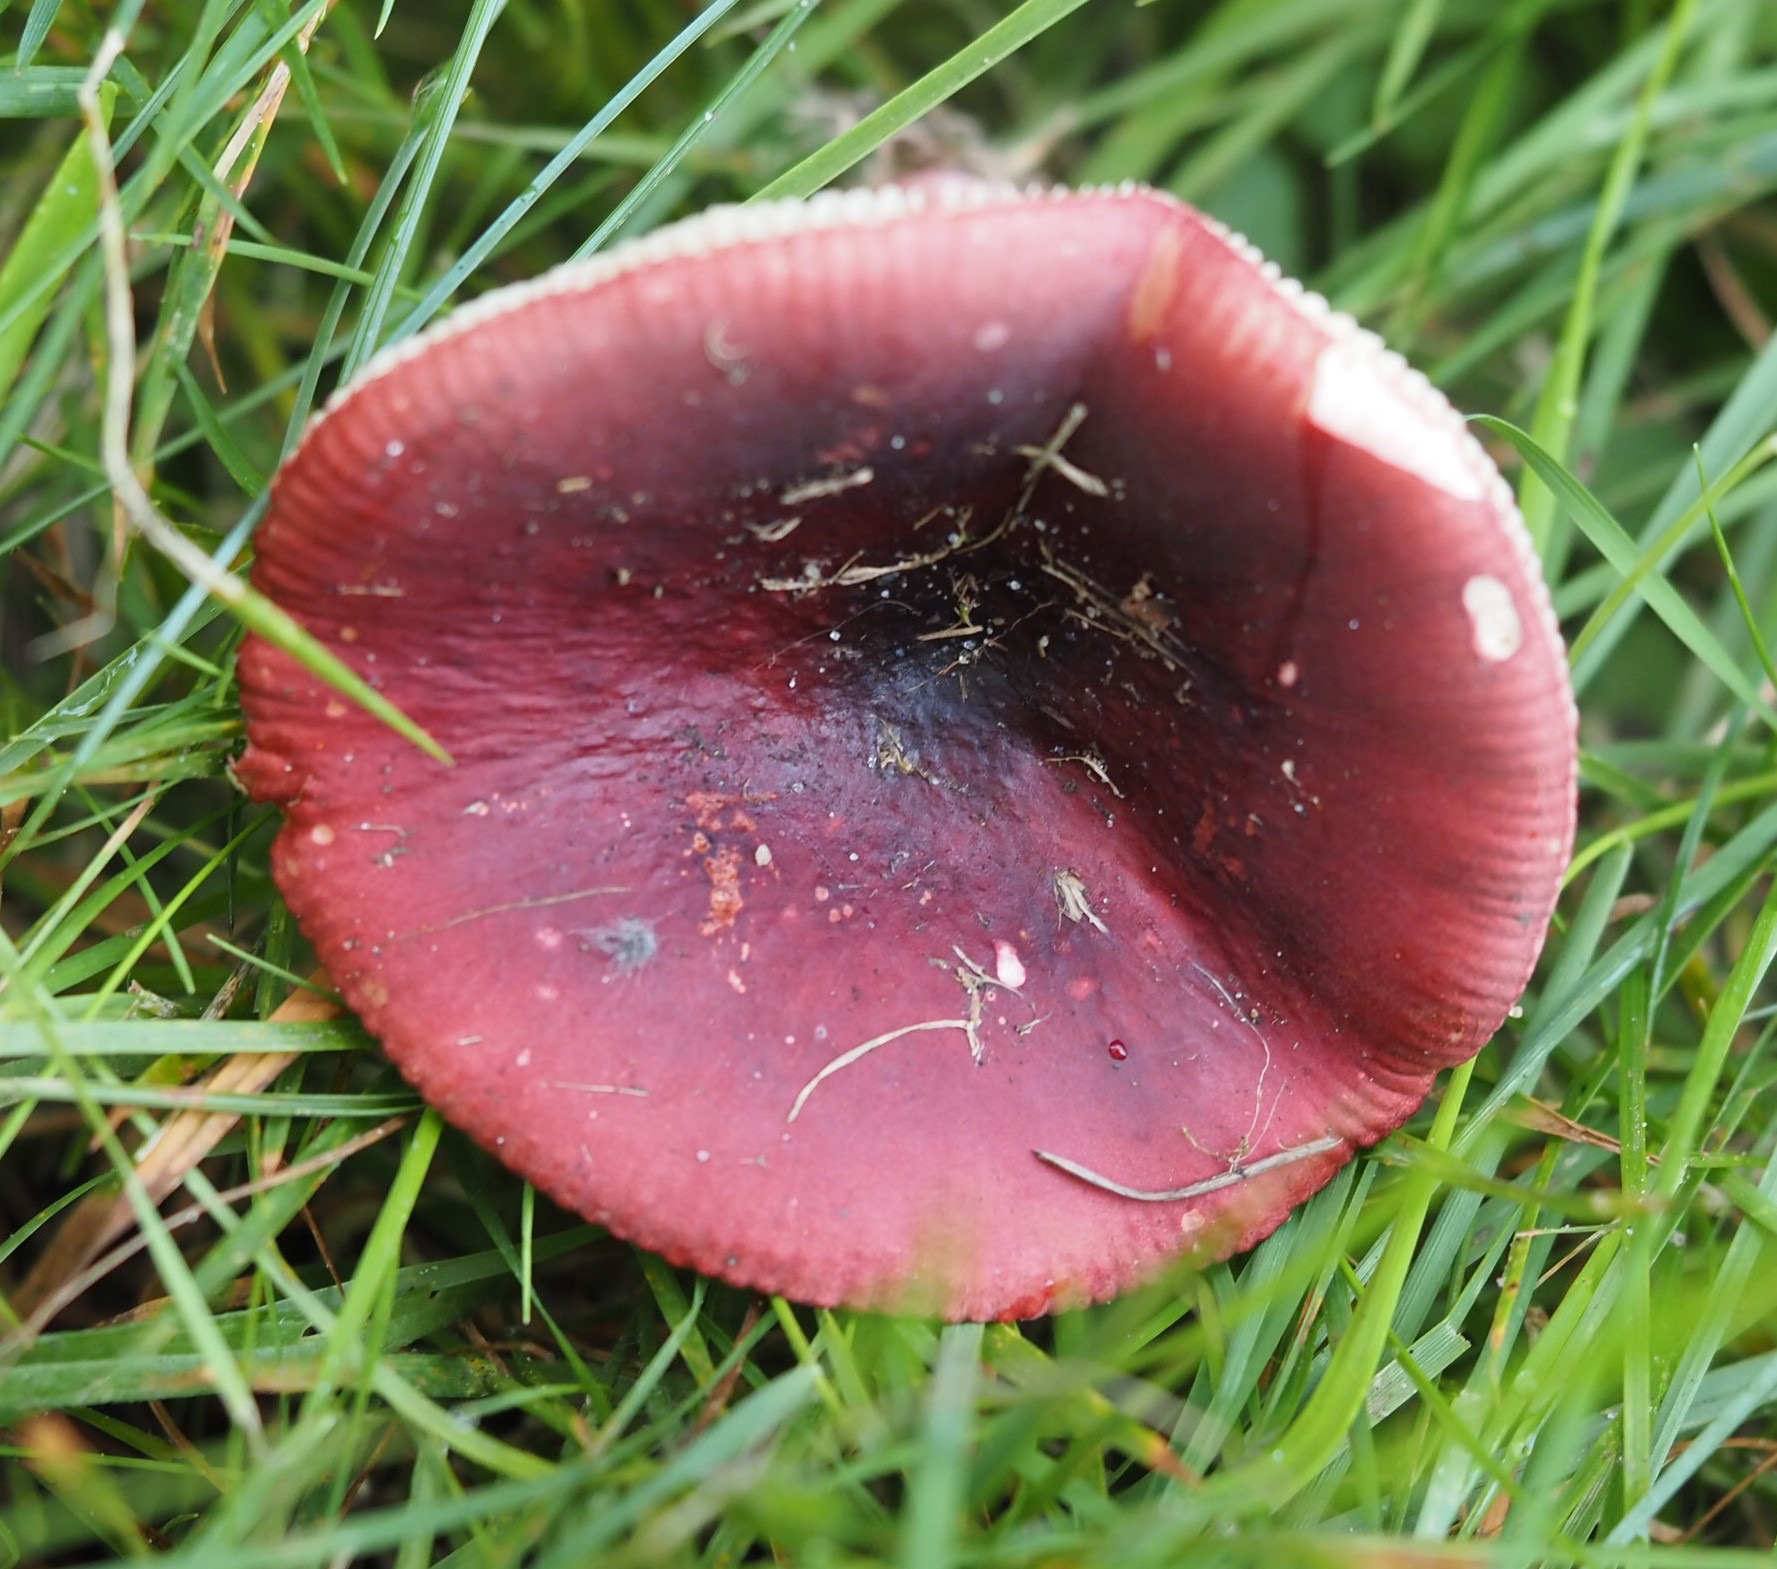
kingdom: Fungi
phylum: Basidiomycota
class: Agaricomycetes
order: Russulales
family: Russulaceae
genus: Russula
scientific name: Russula xerampelina
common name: hummer-skørhat
